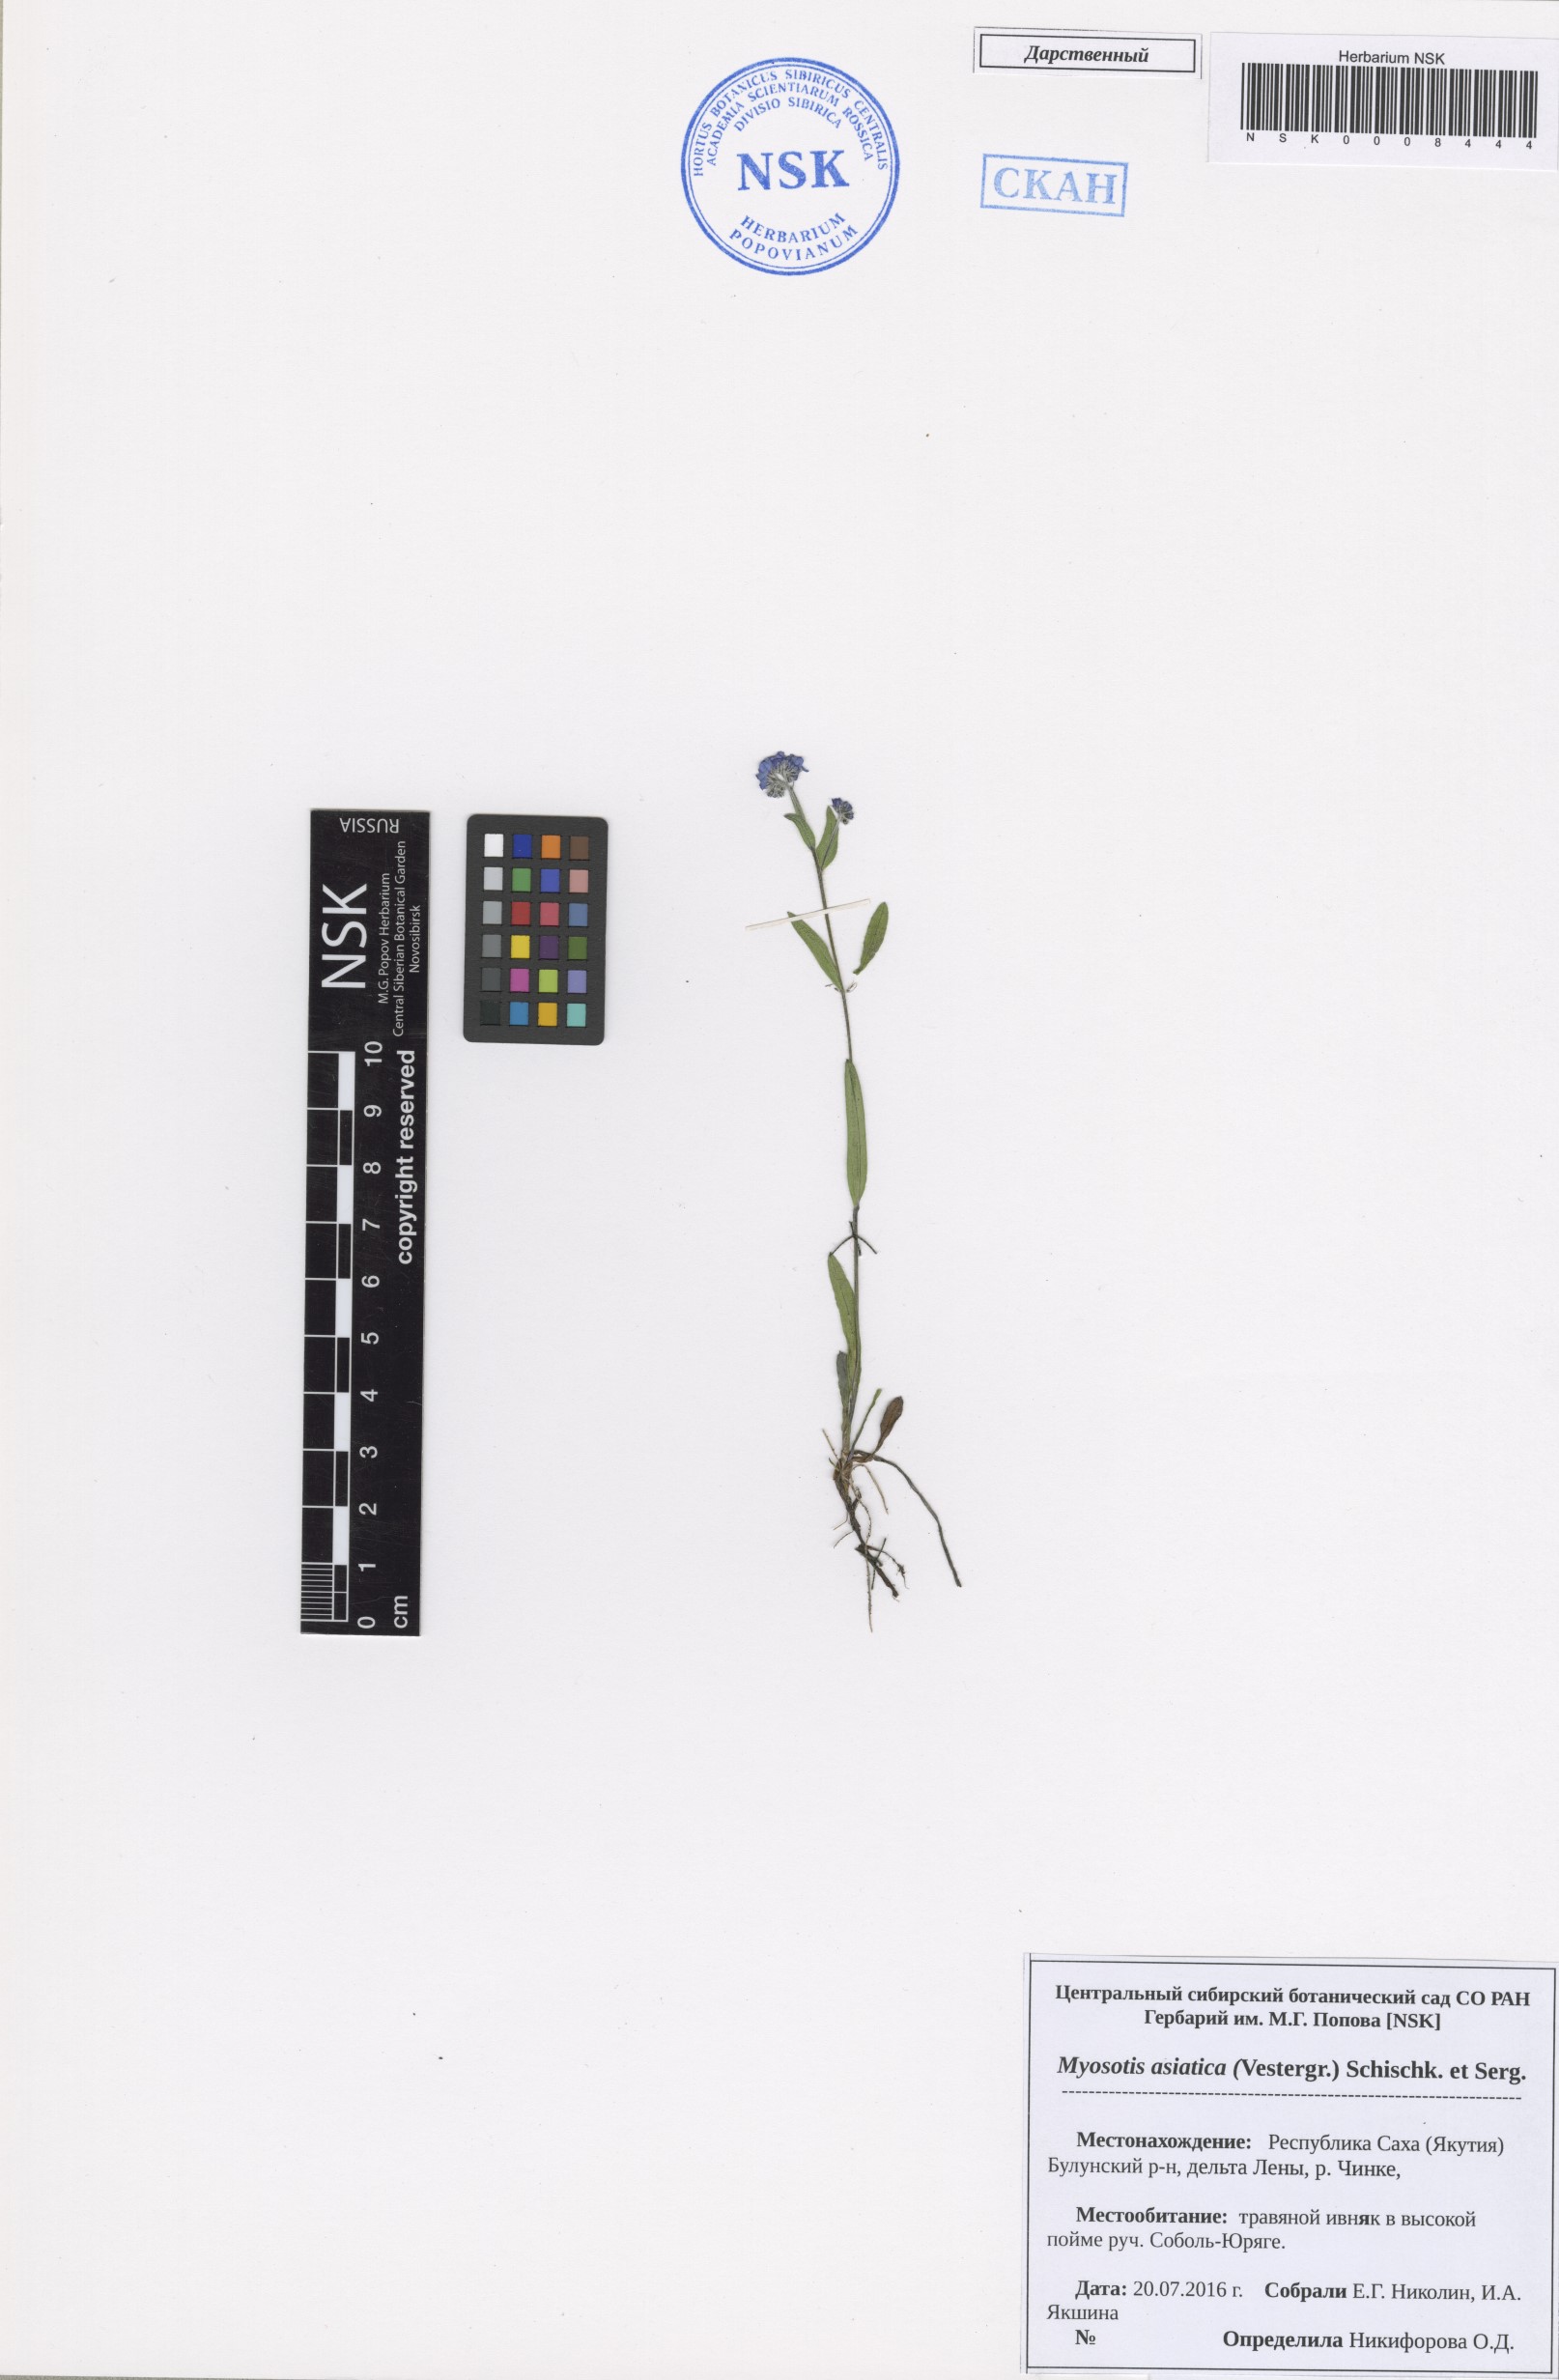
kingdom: Plantae
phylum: Tracheophyta
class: Magnoliopsida
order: Boraginales
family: Boraginaceae
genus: Myosotis
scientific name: Myosotis asiatica
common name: Asian forget-me-not
